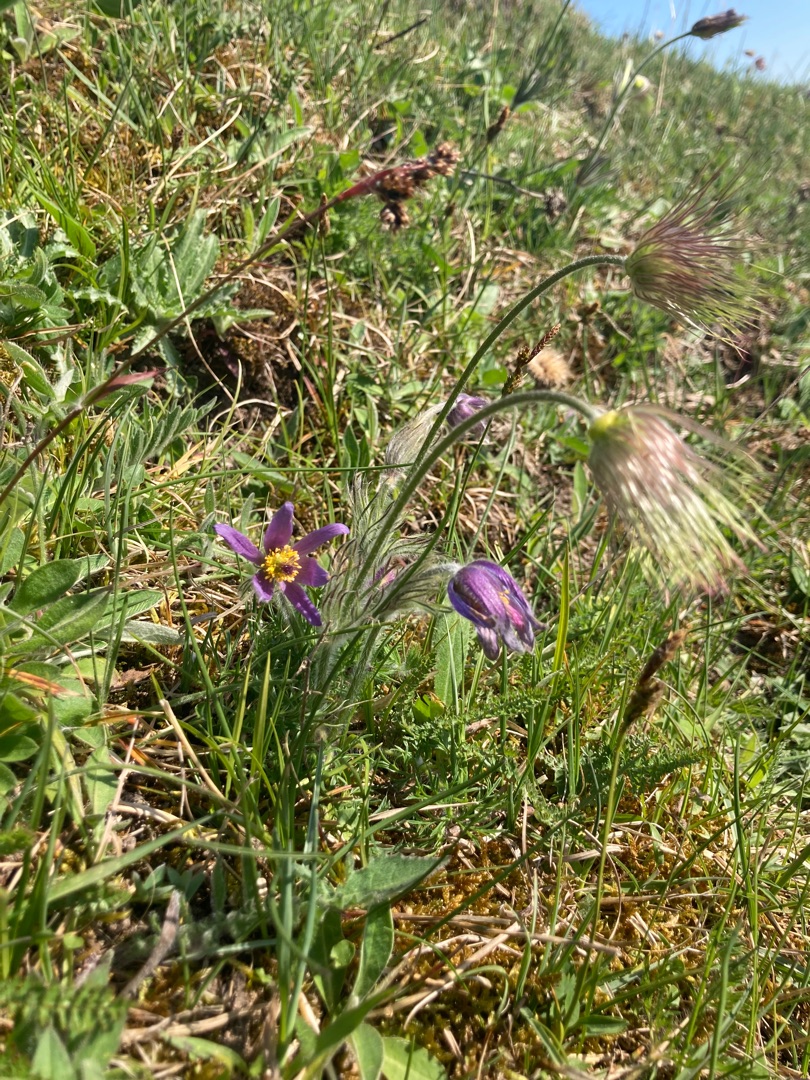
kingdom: Plantae
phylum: Tracheophyta
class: Magnoliopsida
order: Ranunculales
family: Ranunculaceae
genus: Pulsatilla
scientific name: Pulsatilla vulgaris
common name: Opret kobjælde
